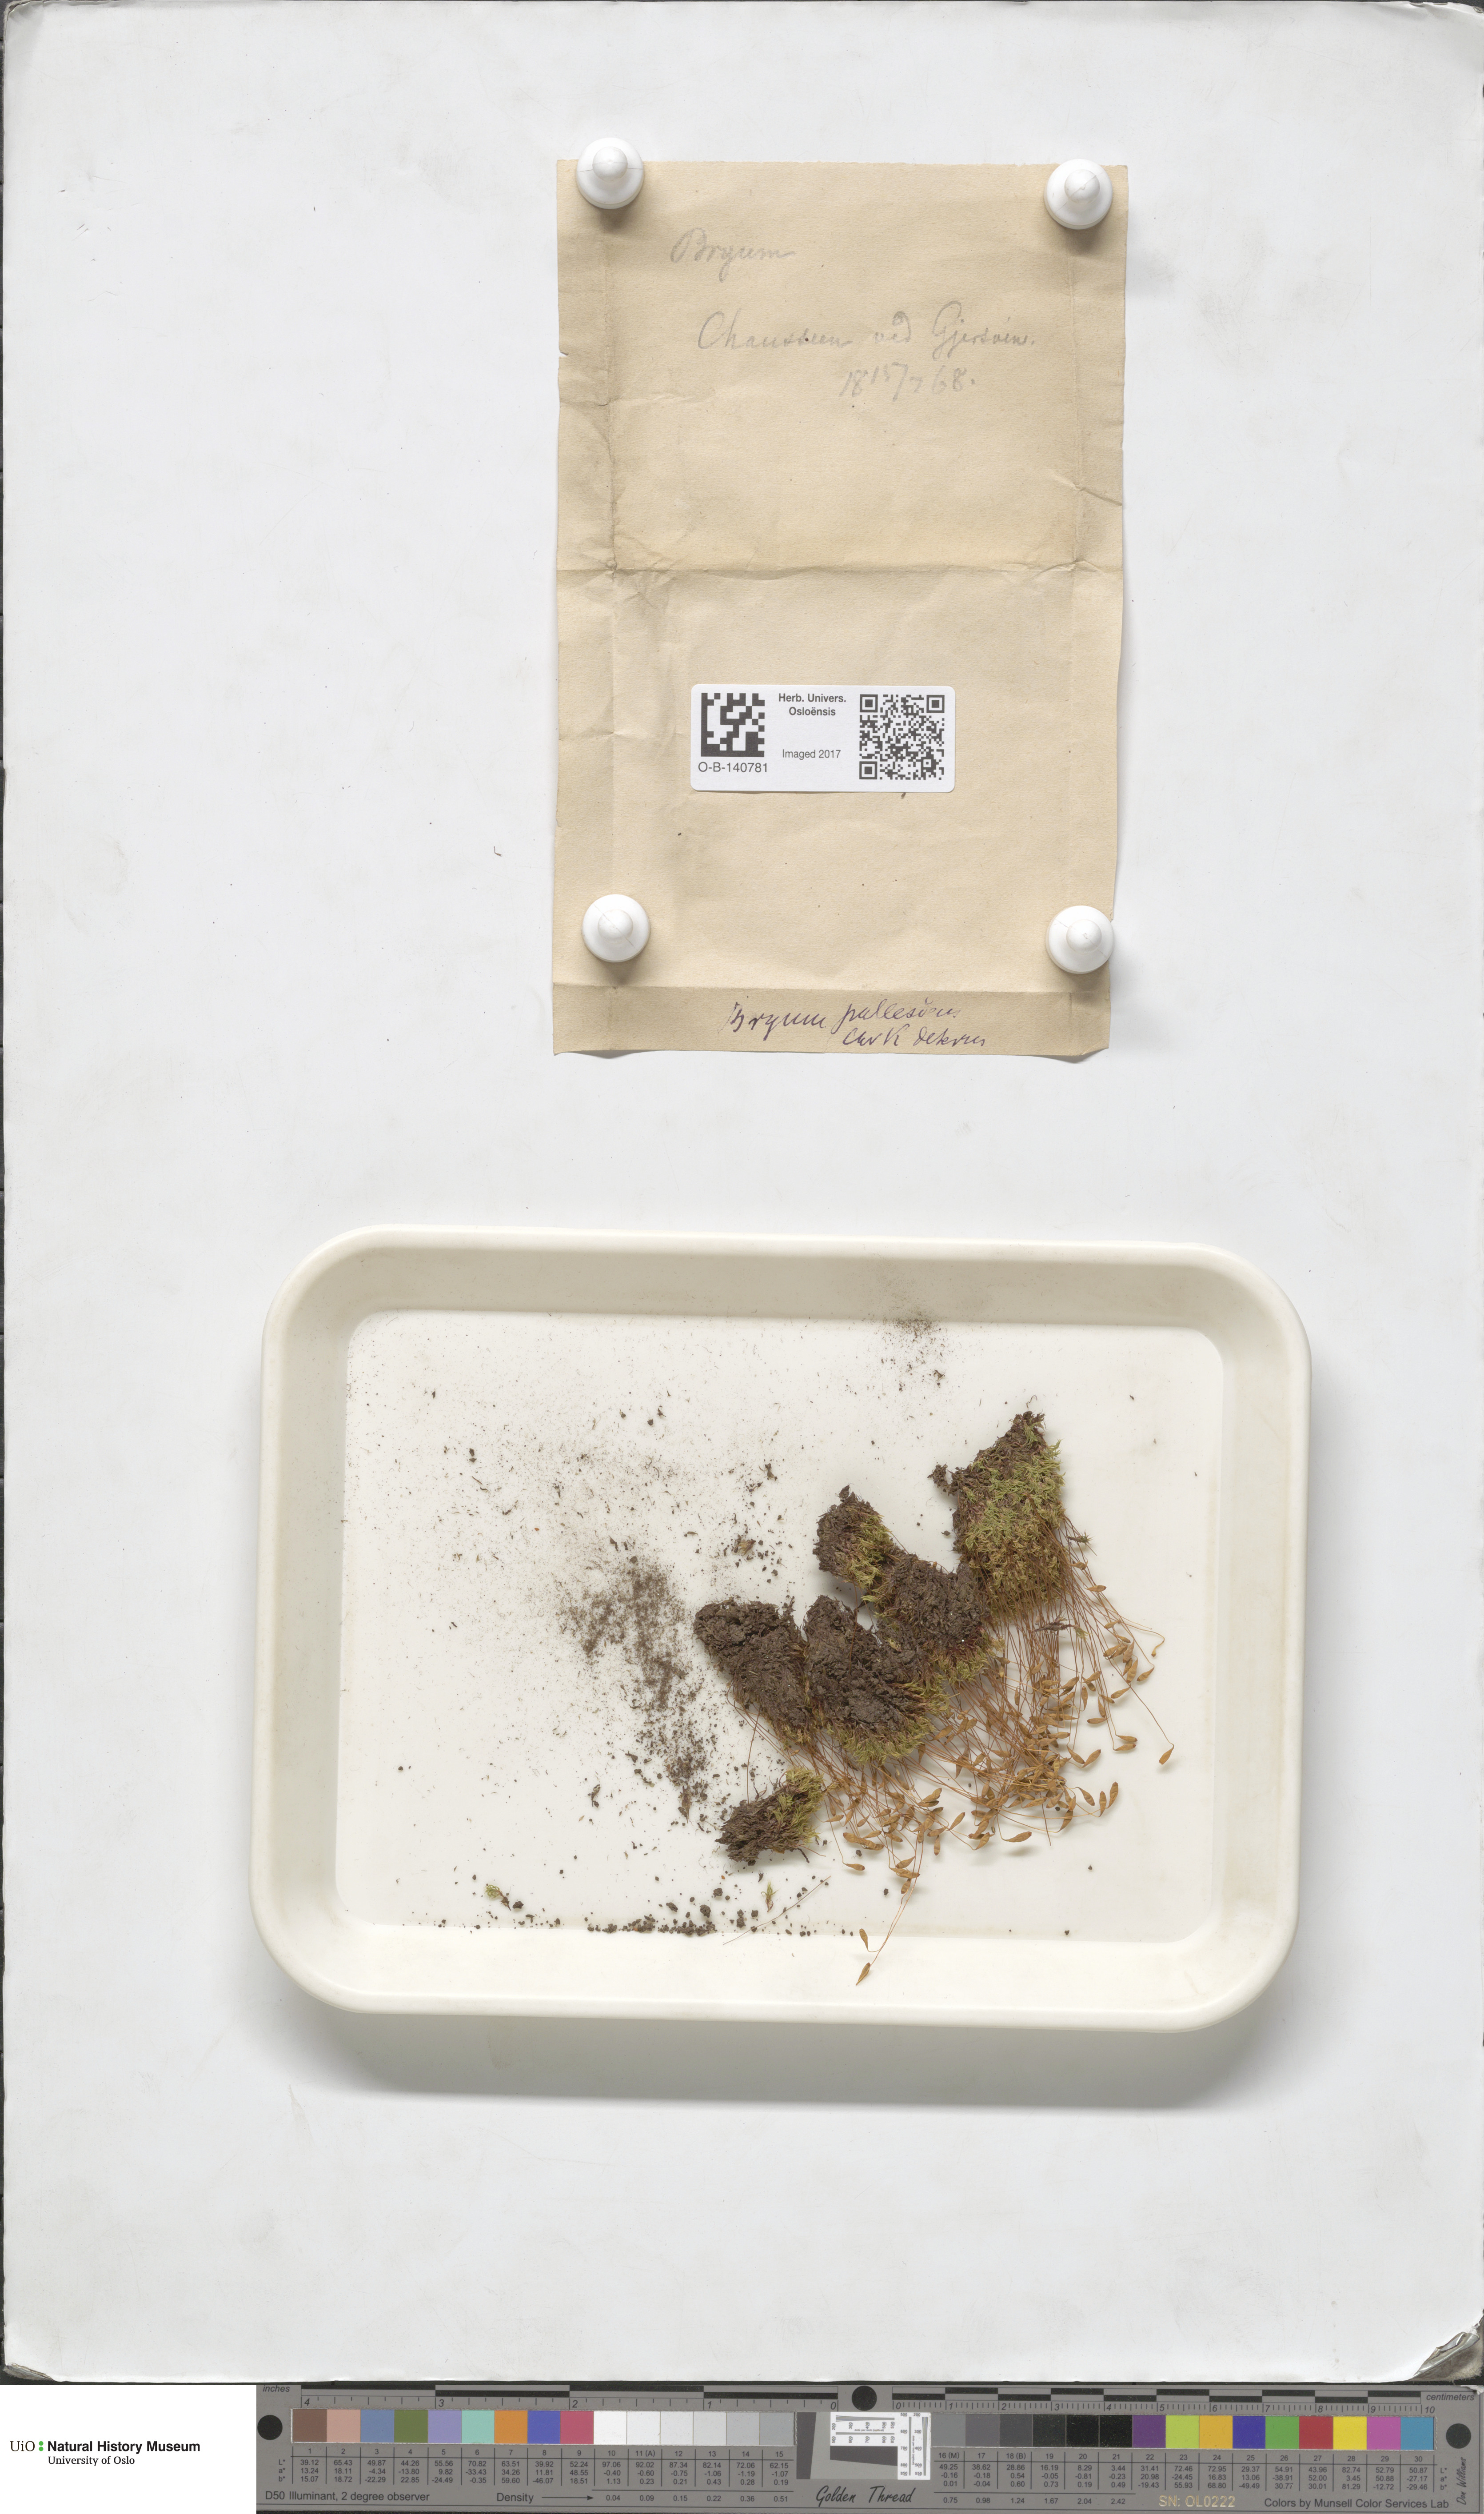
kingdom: Plantae
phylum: Bryophyta
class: Bryopsida
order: Bryales
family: Bryaceae
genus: Ptychostomum
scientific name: Ptychostomum pallescens
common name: Tall-clustered thread-moss
